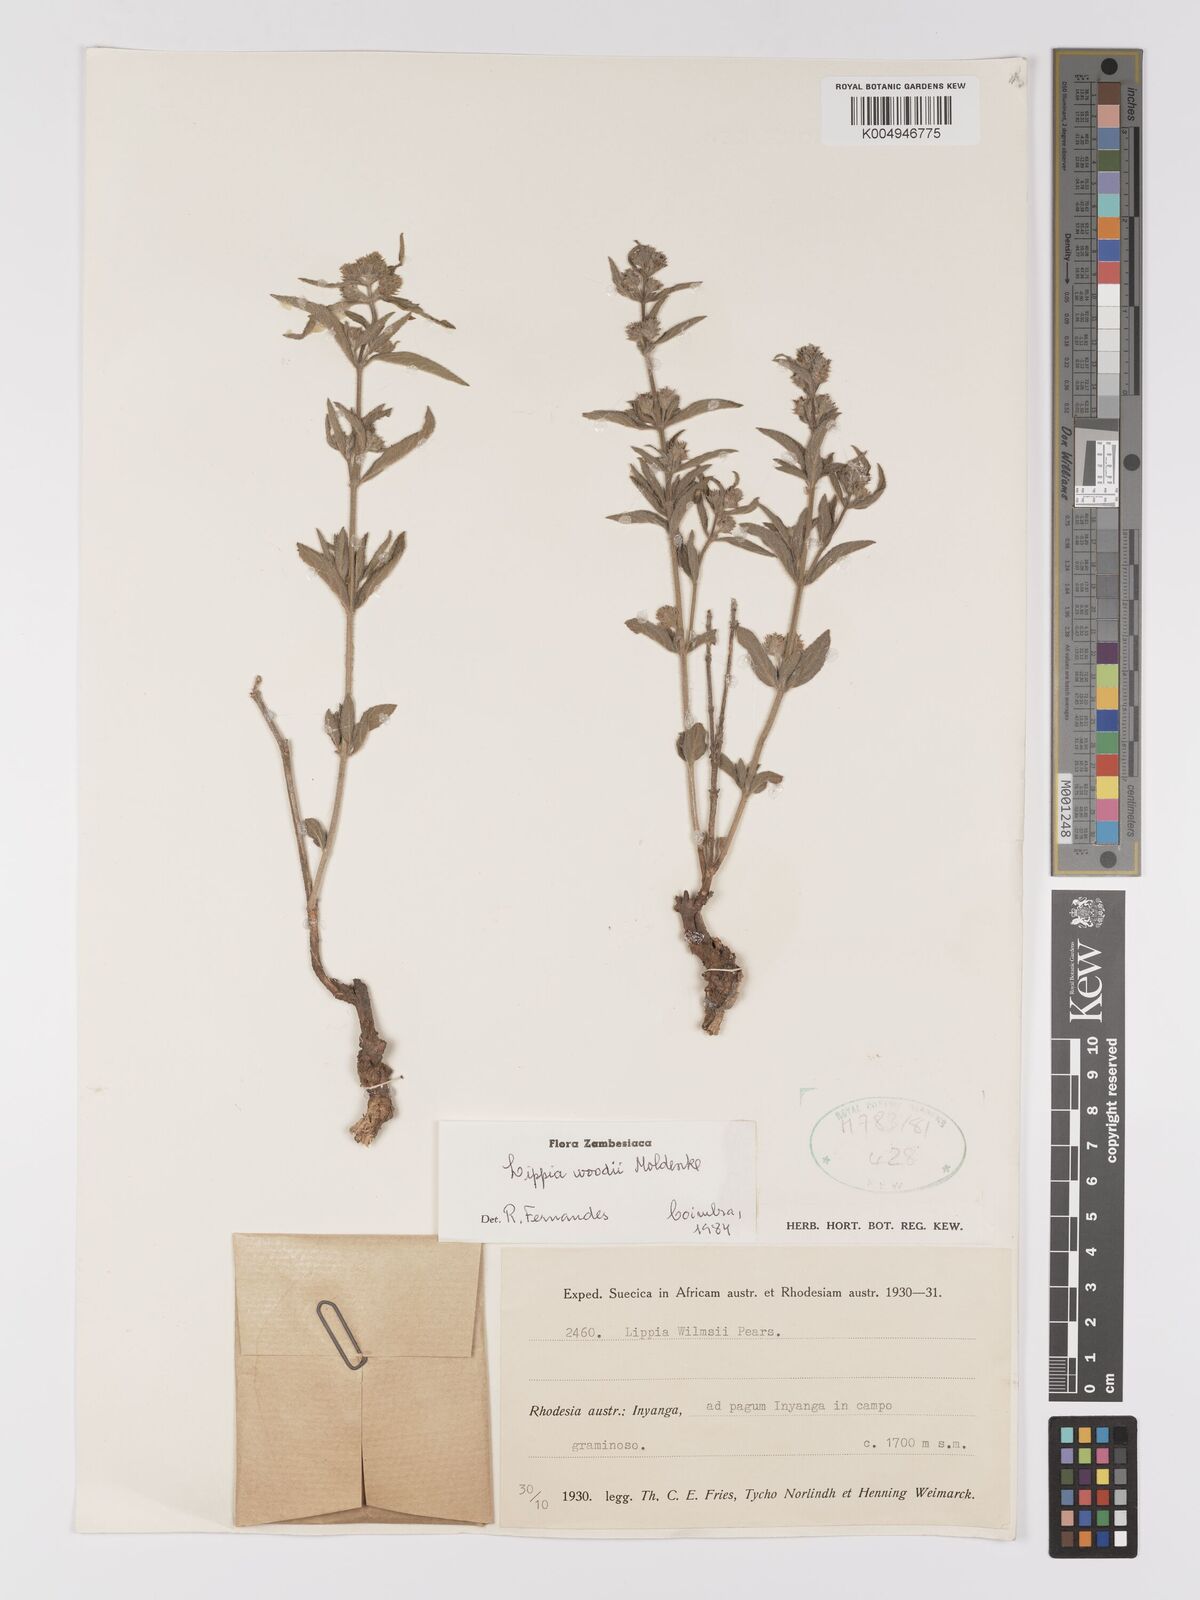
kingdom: Plantae
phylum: Tracheophyta
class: Magnoliopsida
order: Lamiales
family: Verbenaceae
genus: Lippia
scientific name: Lippia woodii
